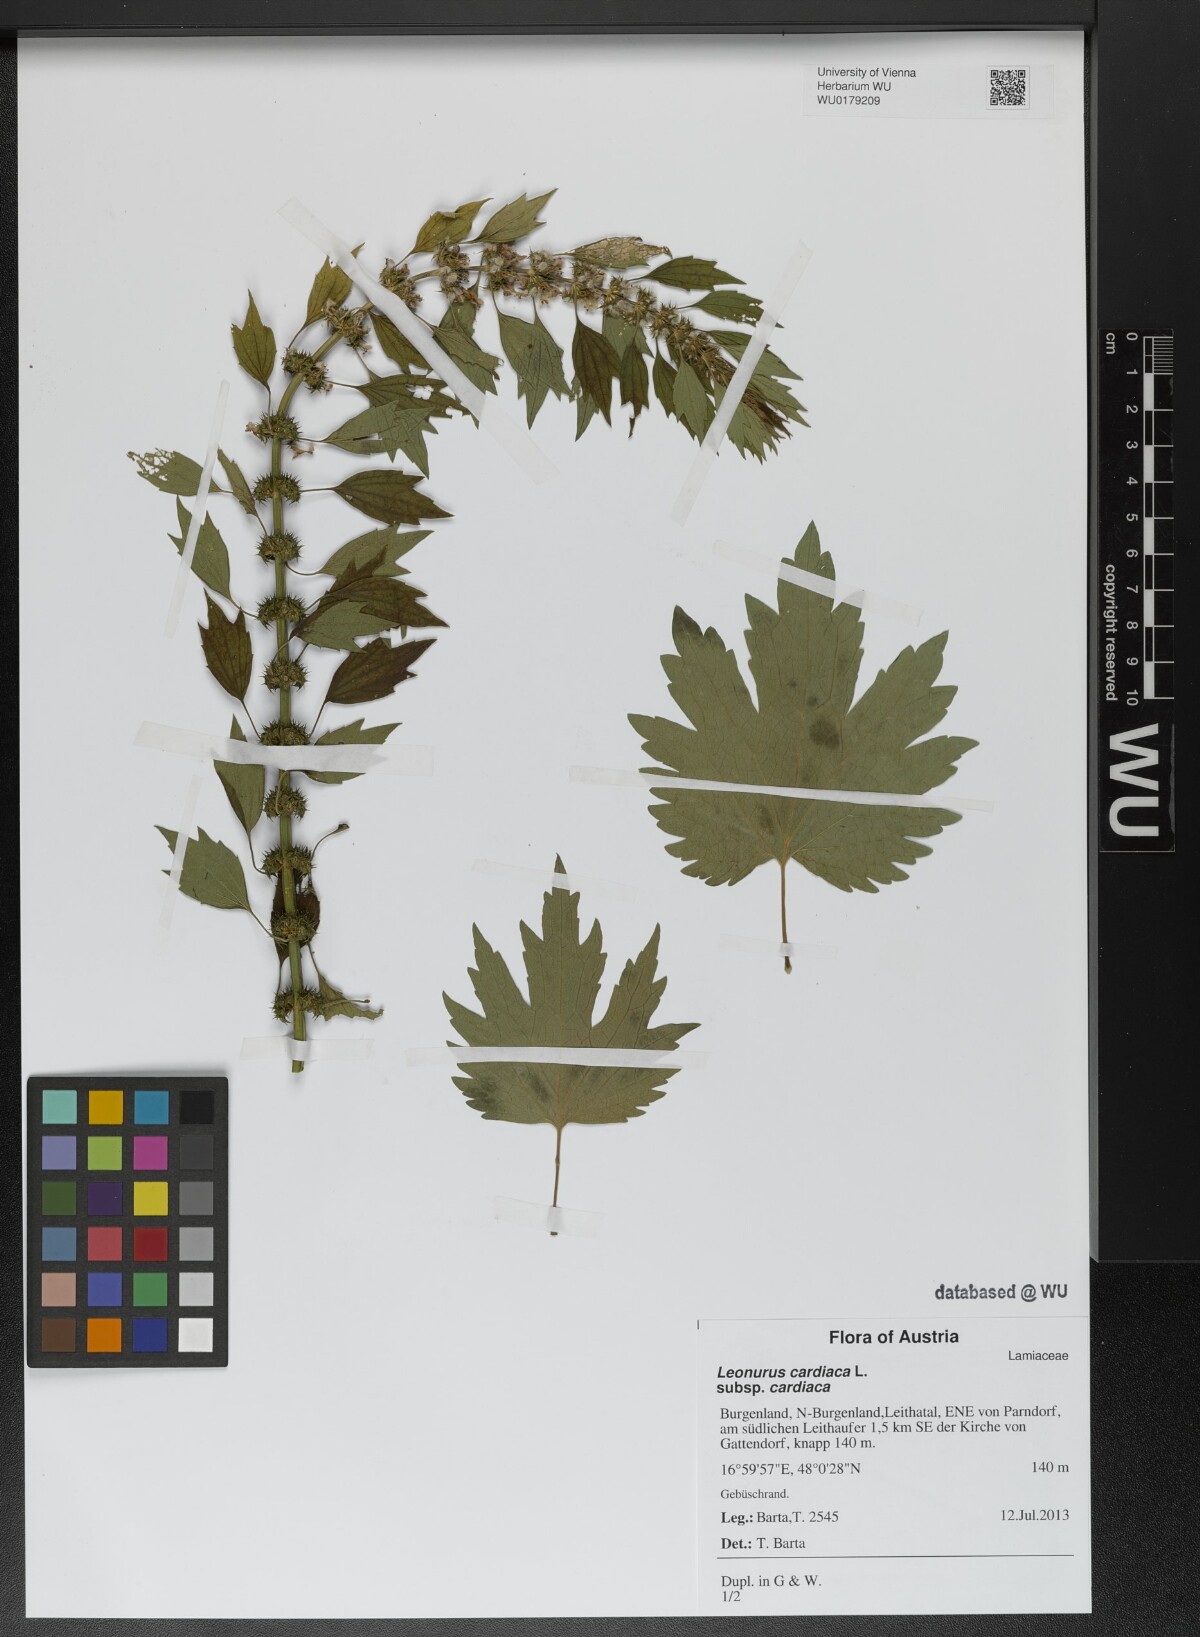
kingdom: Plantae
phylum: Tracheophyta
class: Magnoliopsida
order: Lamiales
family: Lamiaceae
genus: Leonurus
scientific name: Leonurus cardiaca
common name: Motherwort
